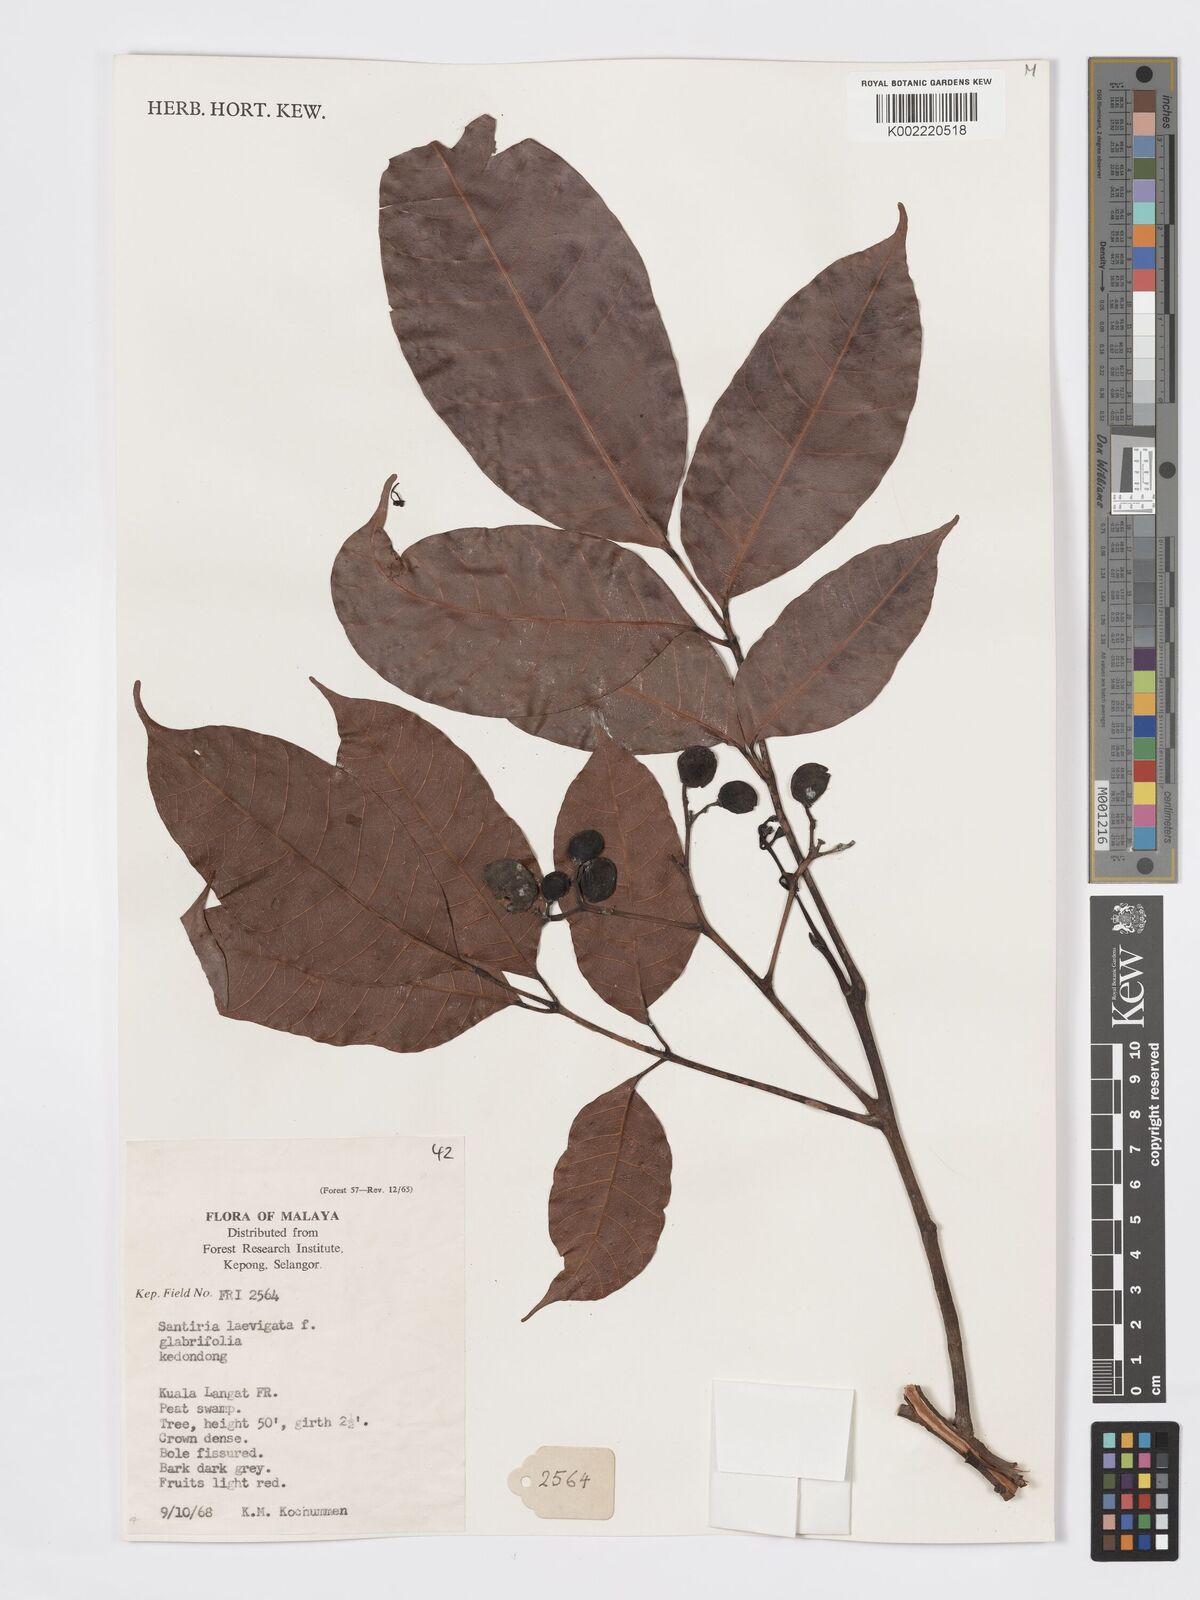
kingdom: Plantae
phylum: Tracheophyta
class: Magnoliopsida
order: Sapindales
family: Burseraceae
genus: Santiria
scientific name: Santiria laevigata
